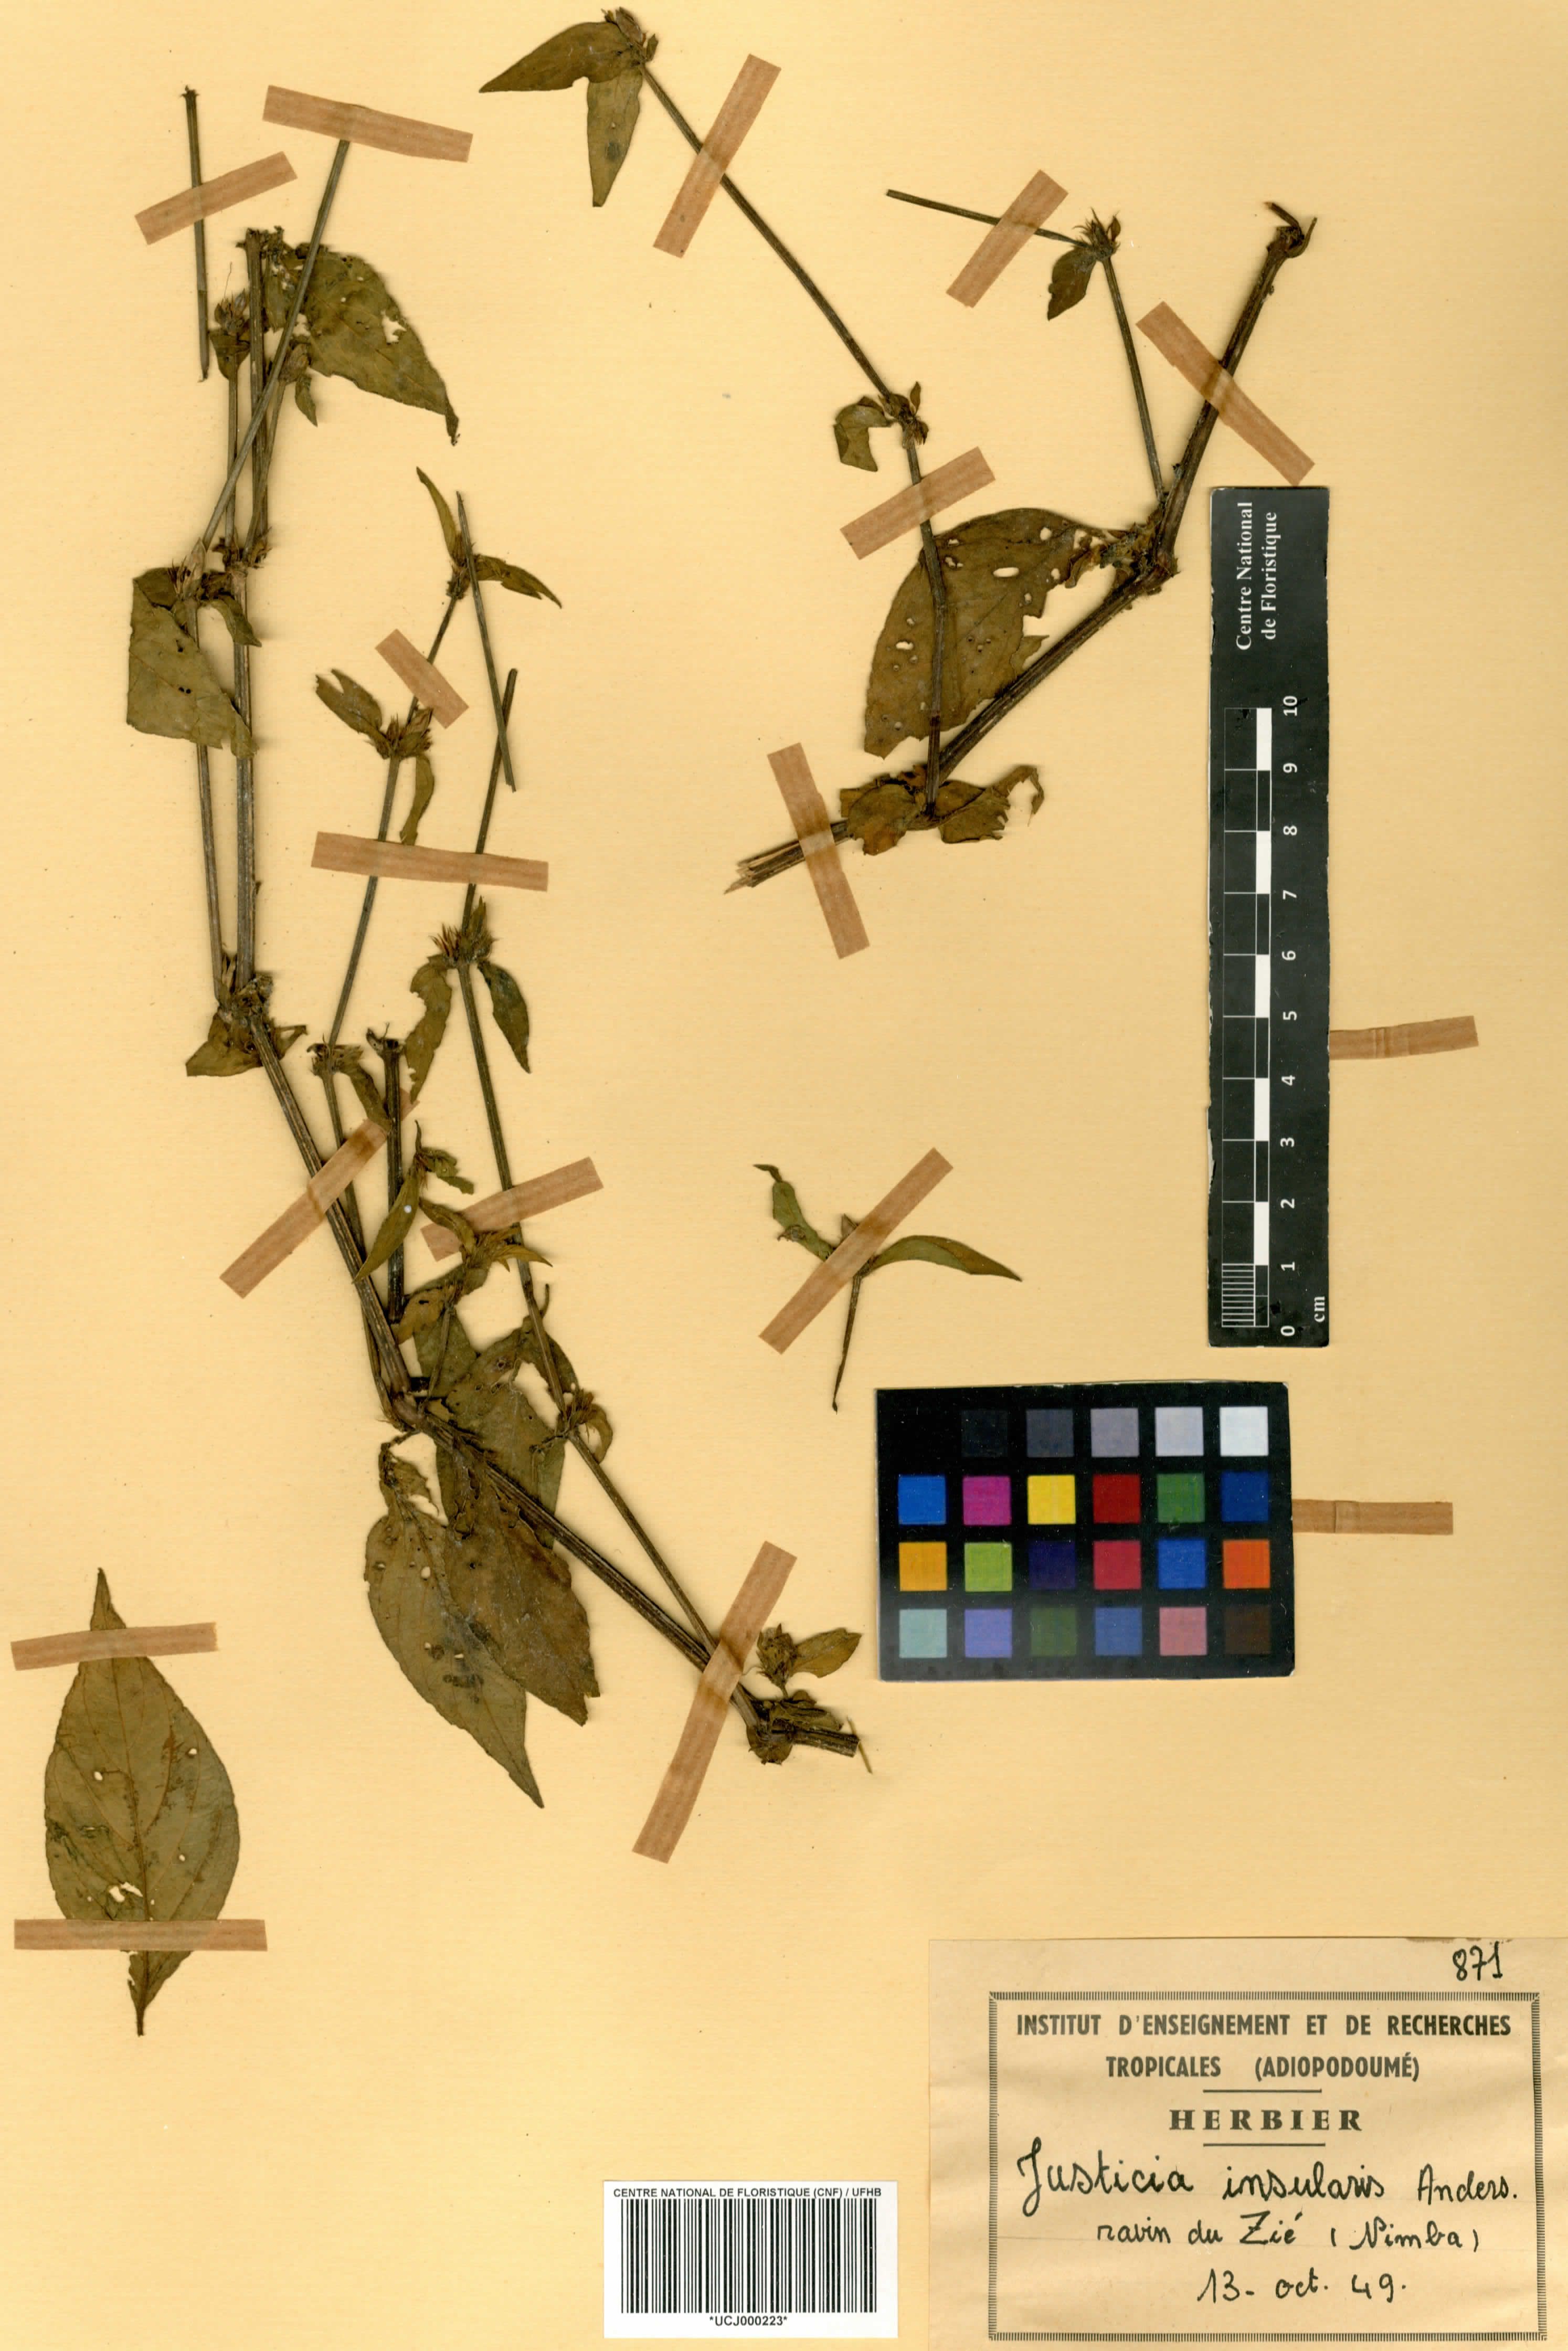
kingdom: Plantae
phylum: Tracheophyta
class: Magnoliopsida
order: Lamiales
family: Acanthaceae
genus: Justicia
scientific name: Justicia insularis
